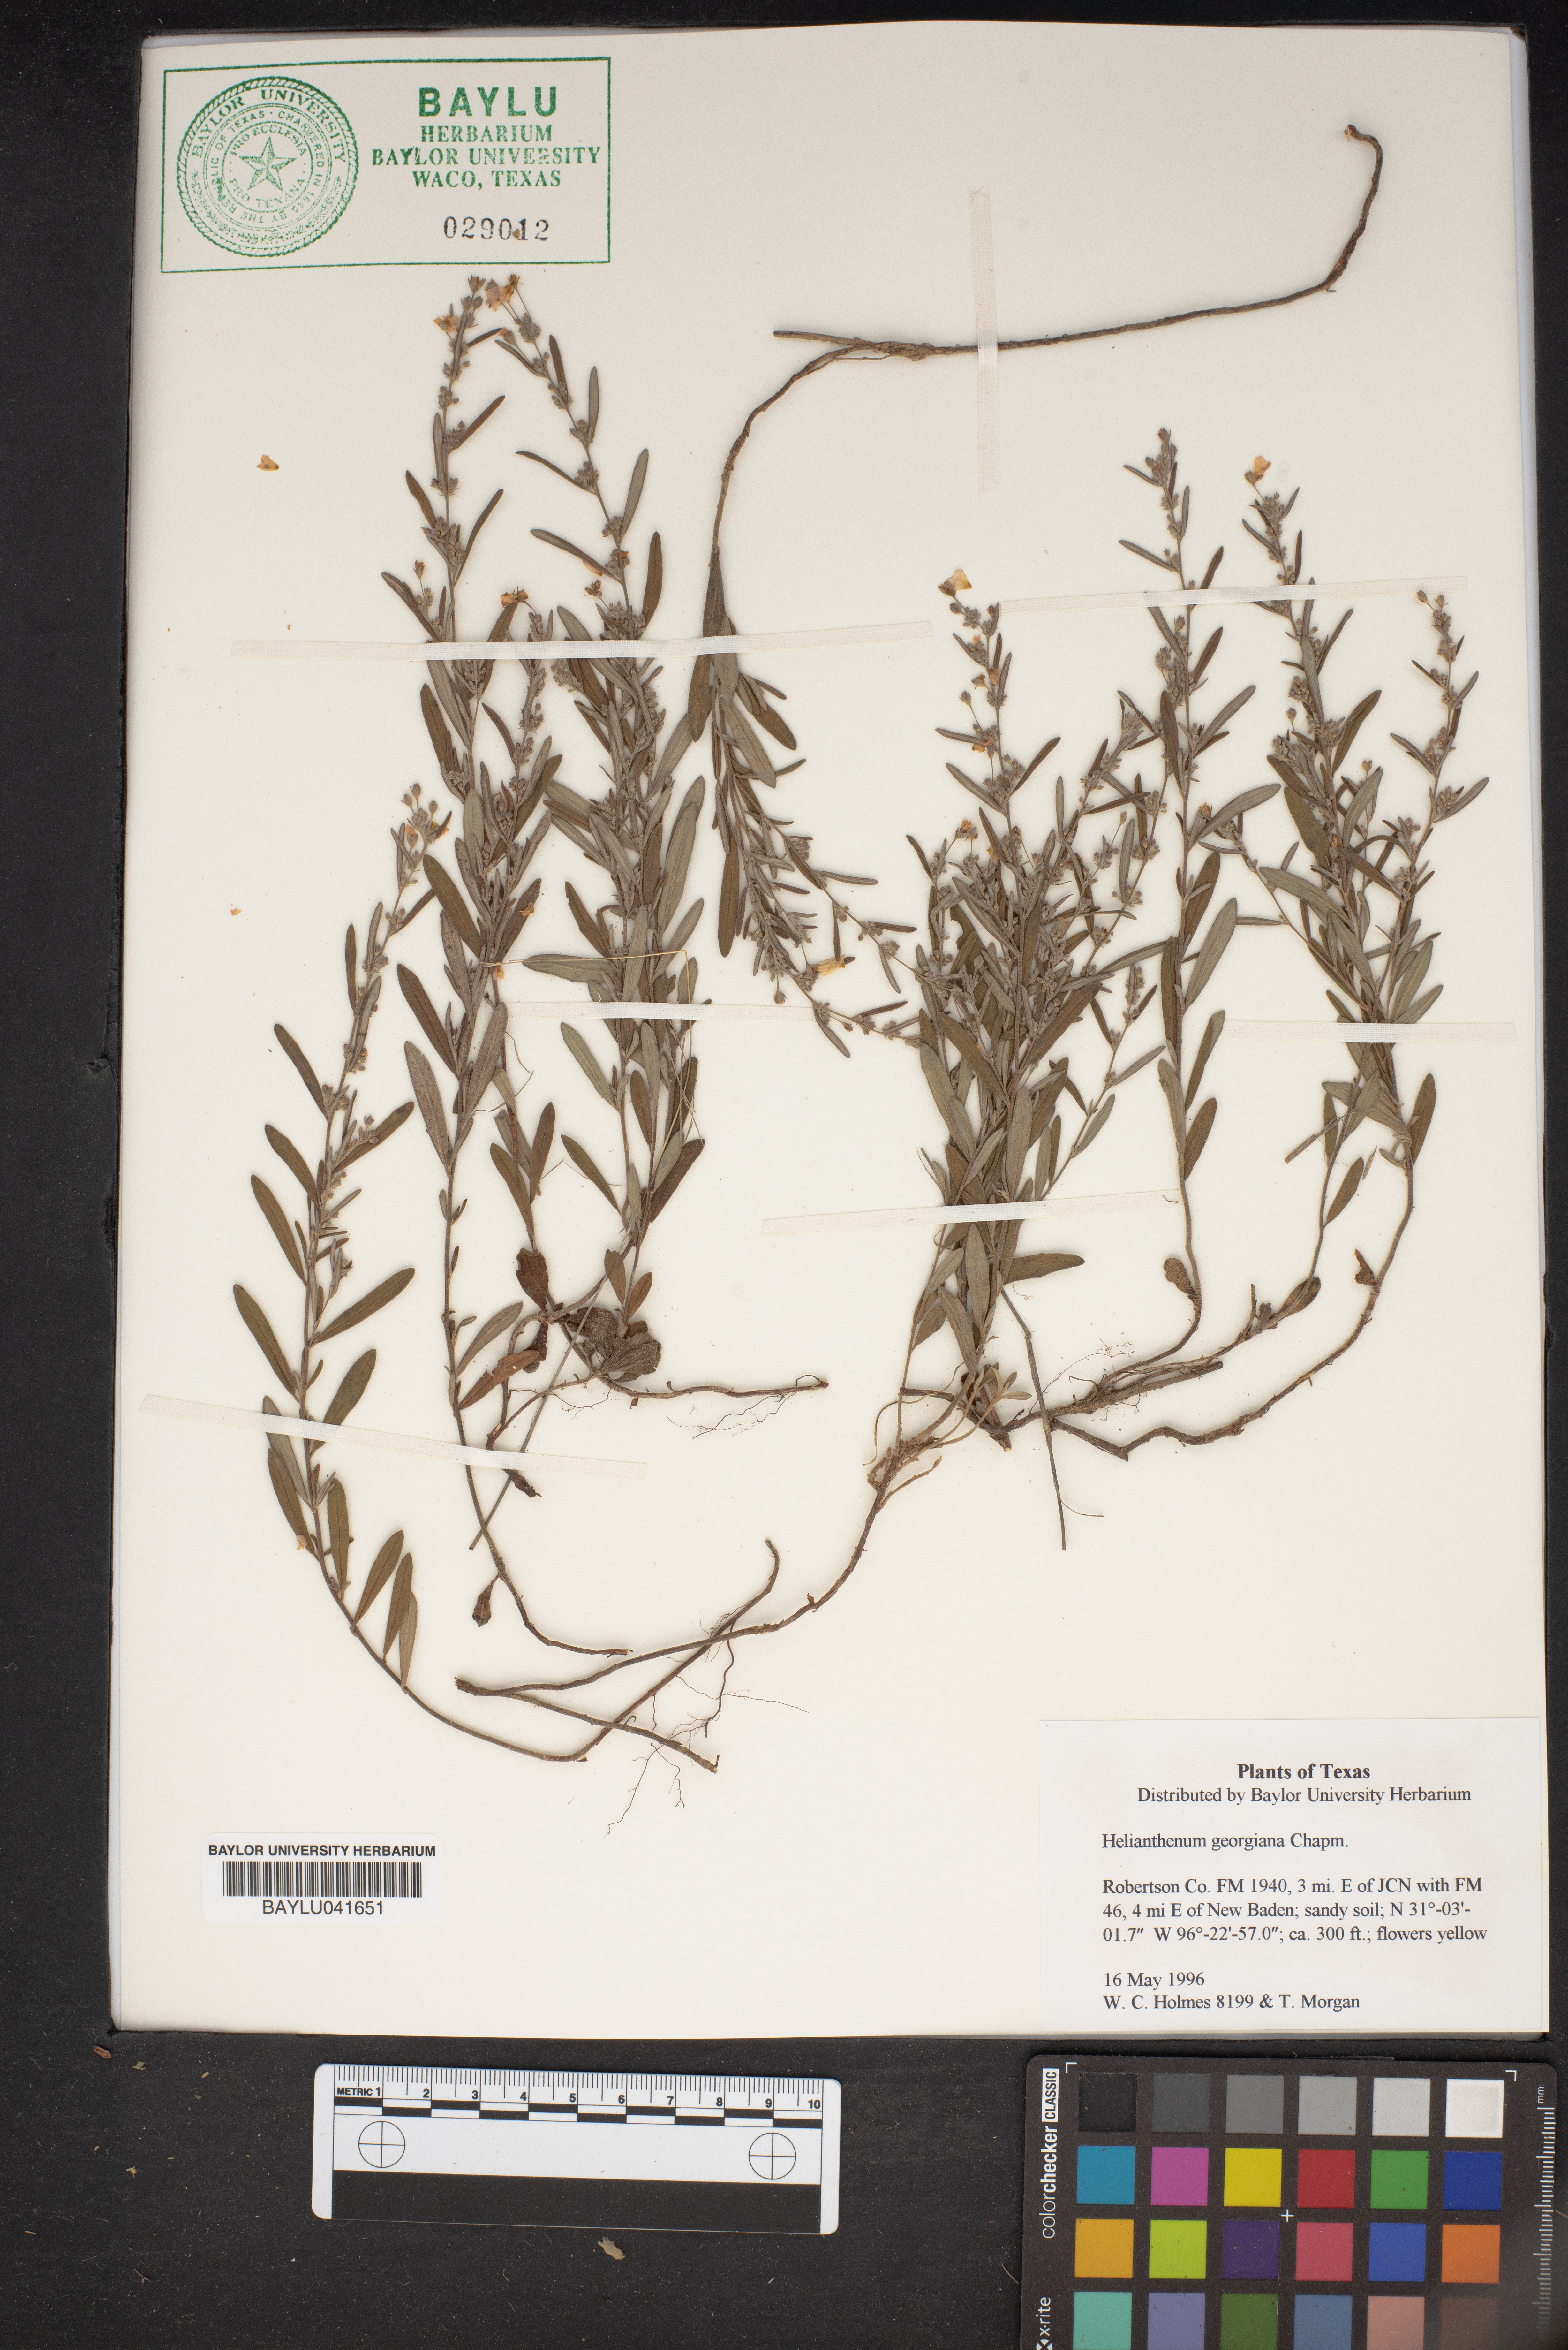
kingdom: Plantae
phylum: Tracheophyta
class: Magnoliopsida
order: Malvales
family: Cistaceae
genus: Crocanthemum
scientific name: Crocanthemum georgianum
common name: Georgia frostweed
